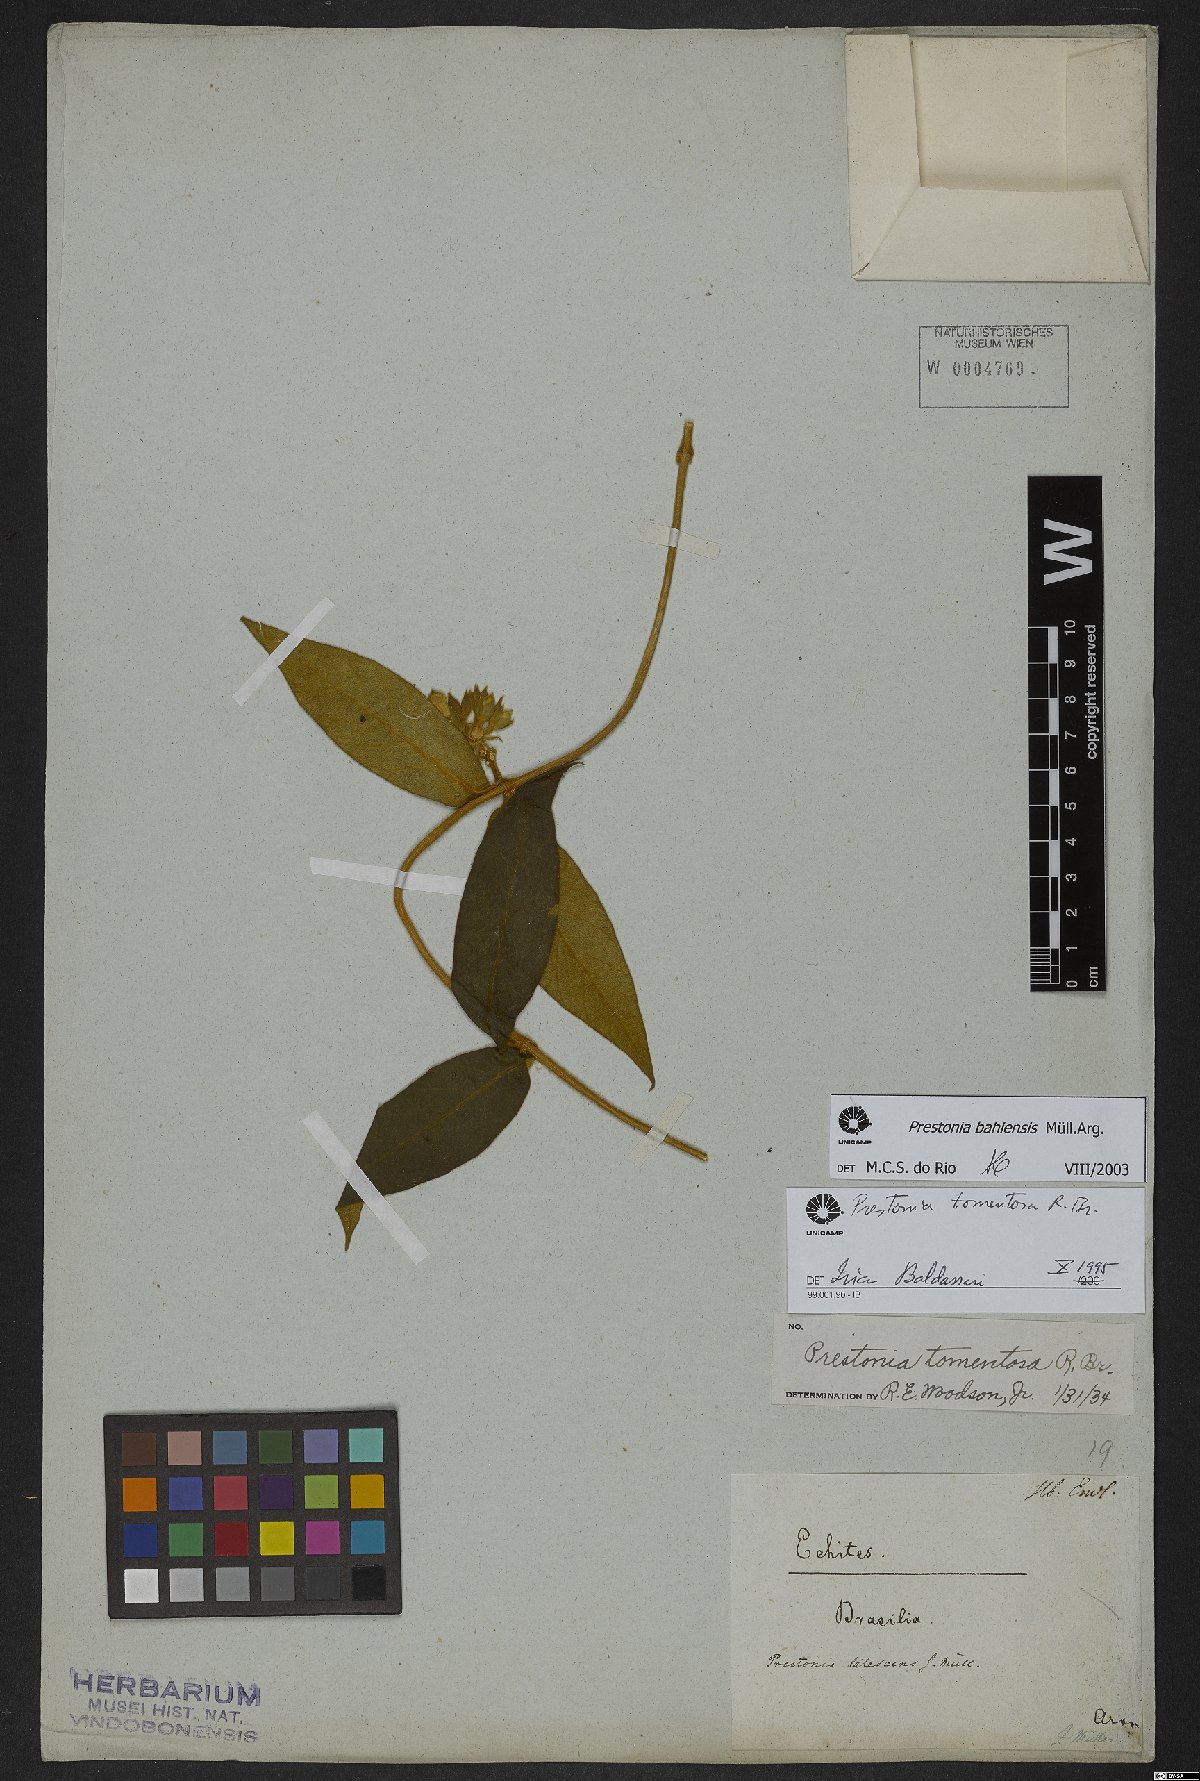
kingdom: Plantae
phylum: Tracheophyta
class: Magnoliopsida
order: Gentianales
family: Apocynaceae
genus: Prestonia
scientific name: Prestonia bahiensis
